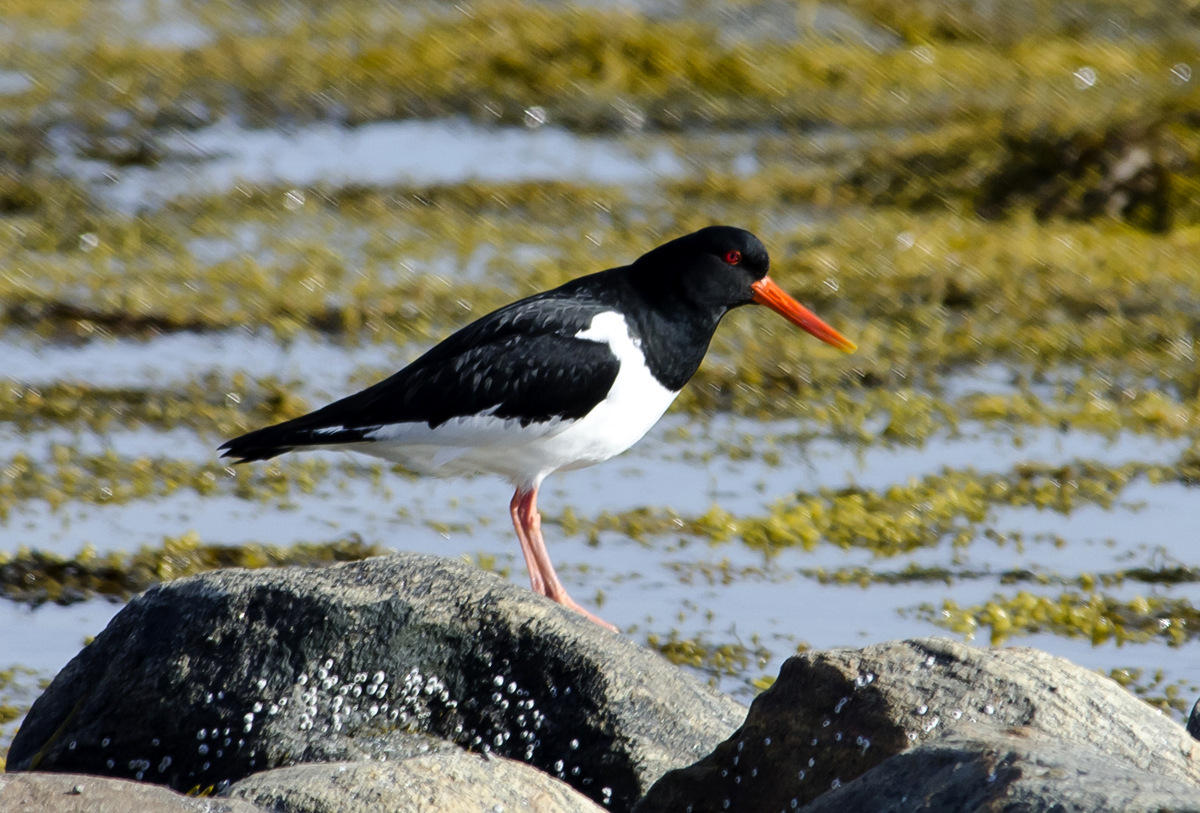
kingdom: Animalia
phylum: Chordata
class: Aves
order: Charadriiformes
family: Haematopodidae
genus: Haematopus
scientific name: Haematopus ostralegus
